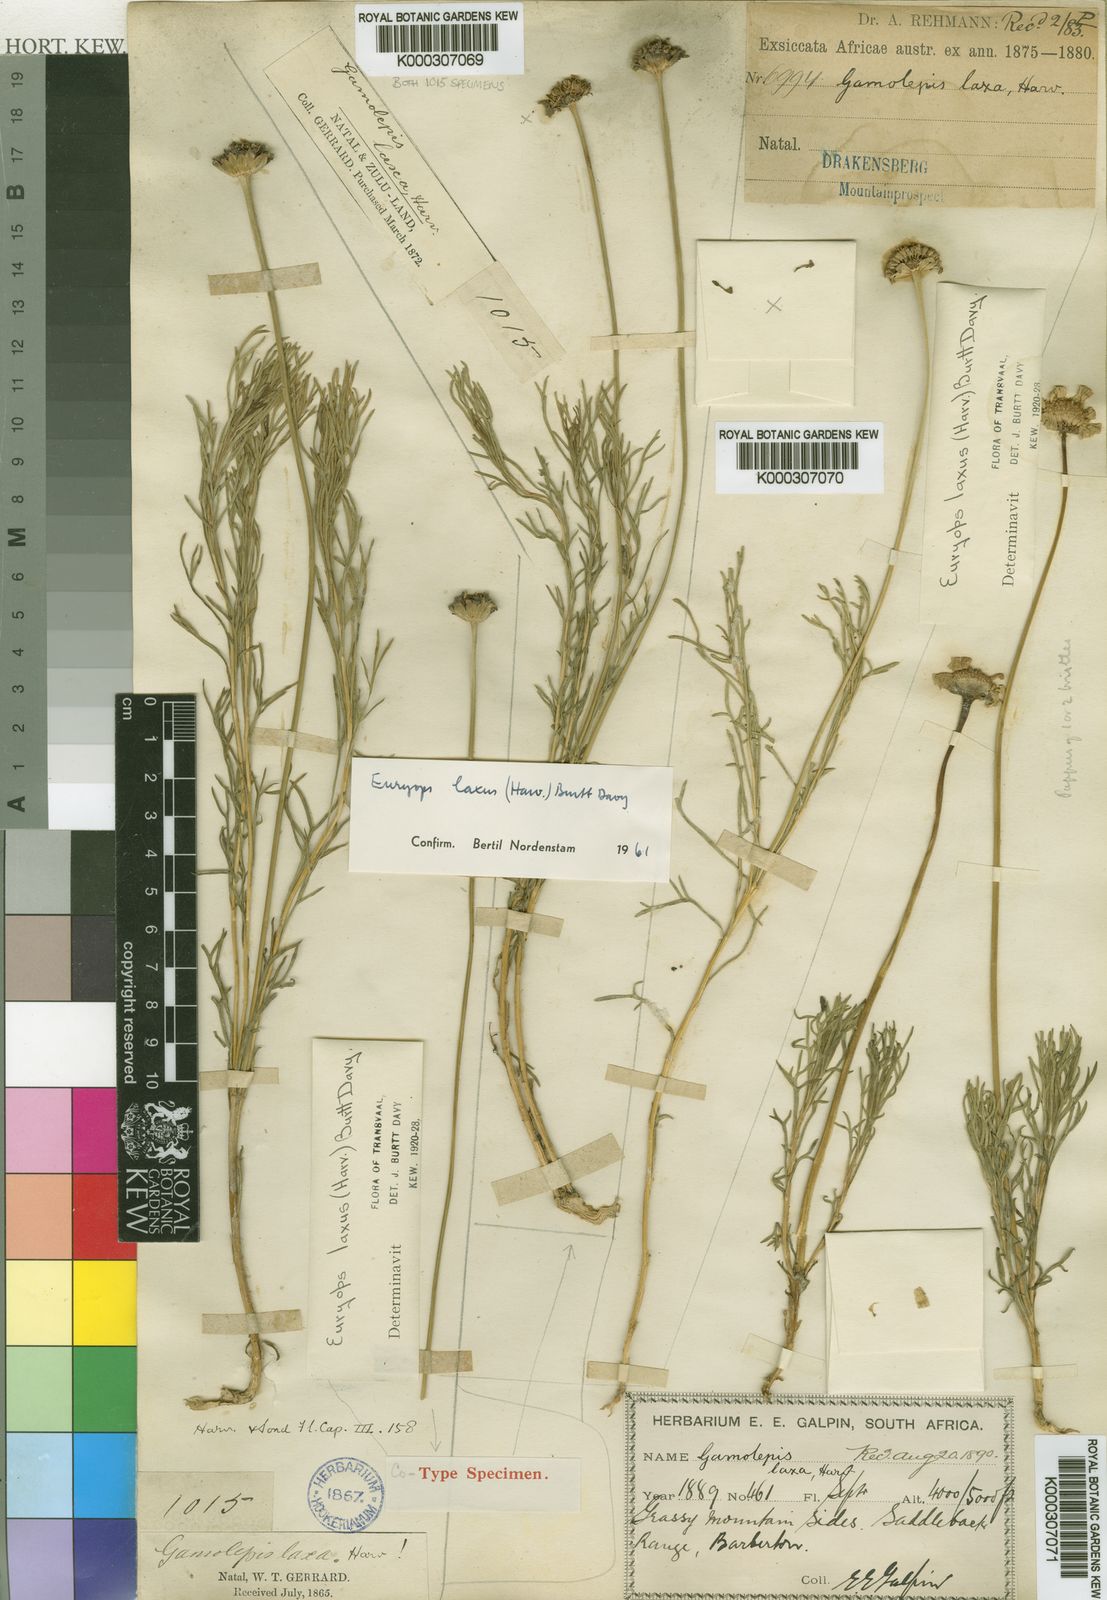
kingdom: Plantae
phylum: Tracheophyta
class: Magnoliopsida
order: Asterales
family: Asteraceae
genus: Euryops
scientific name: Euryops laxus
